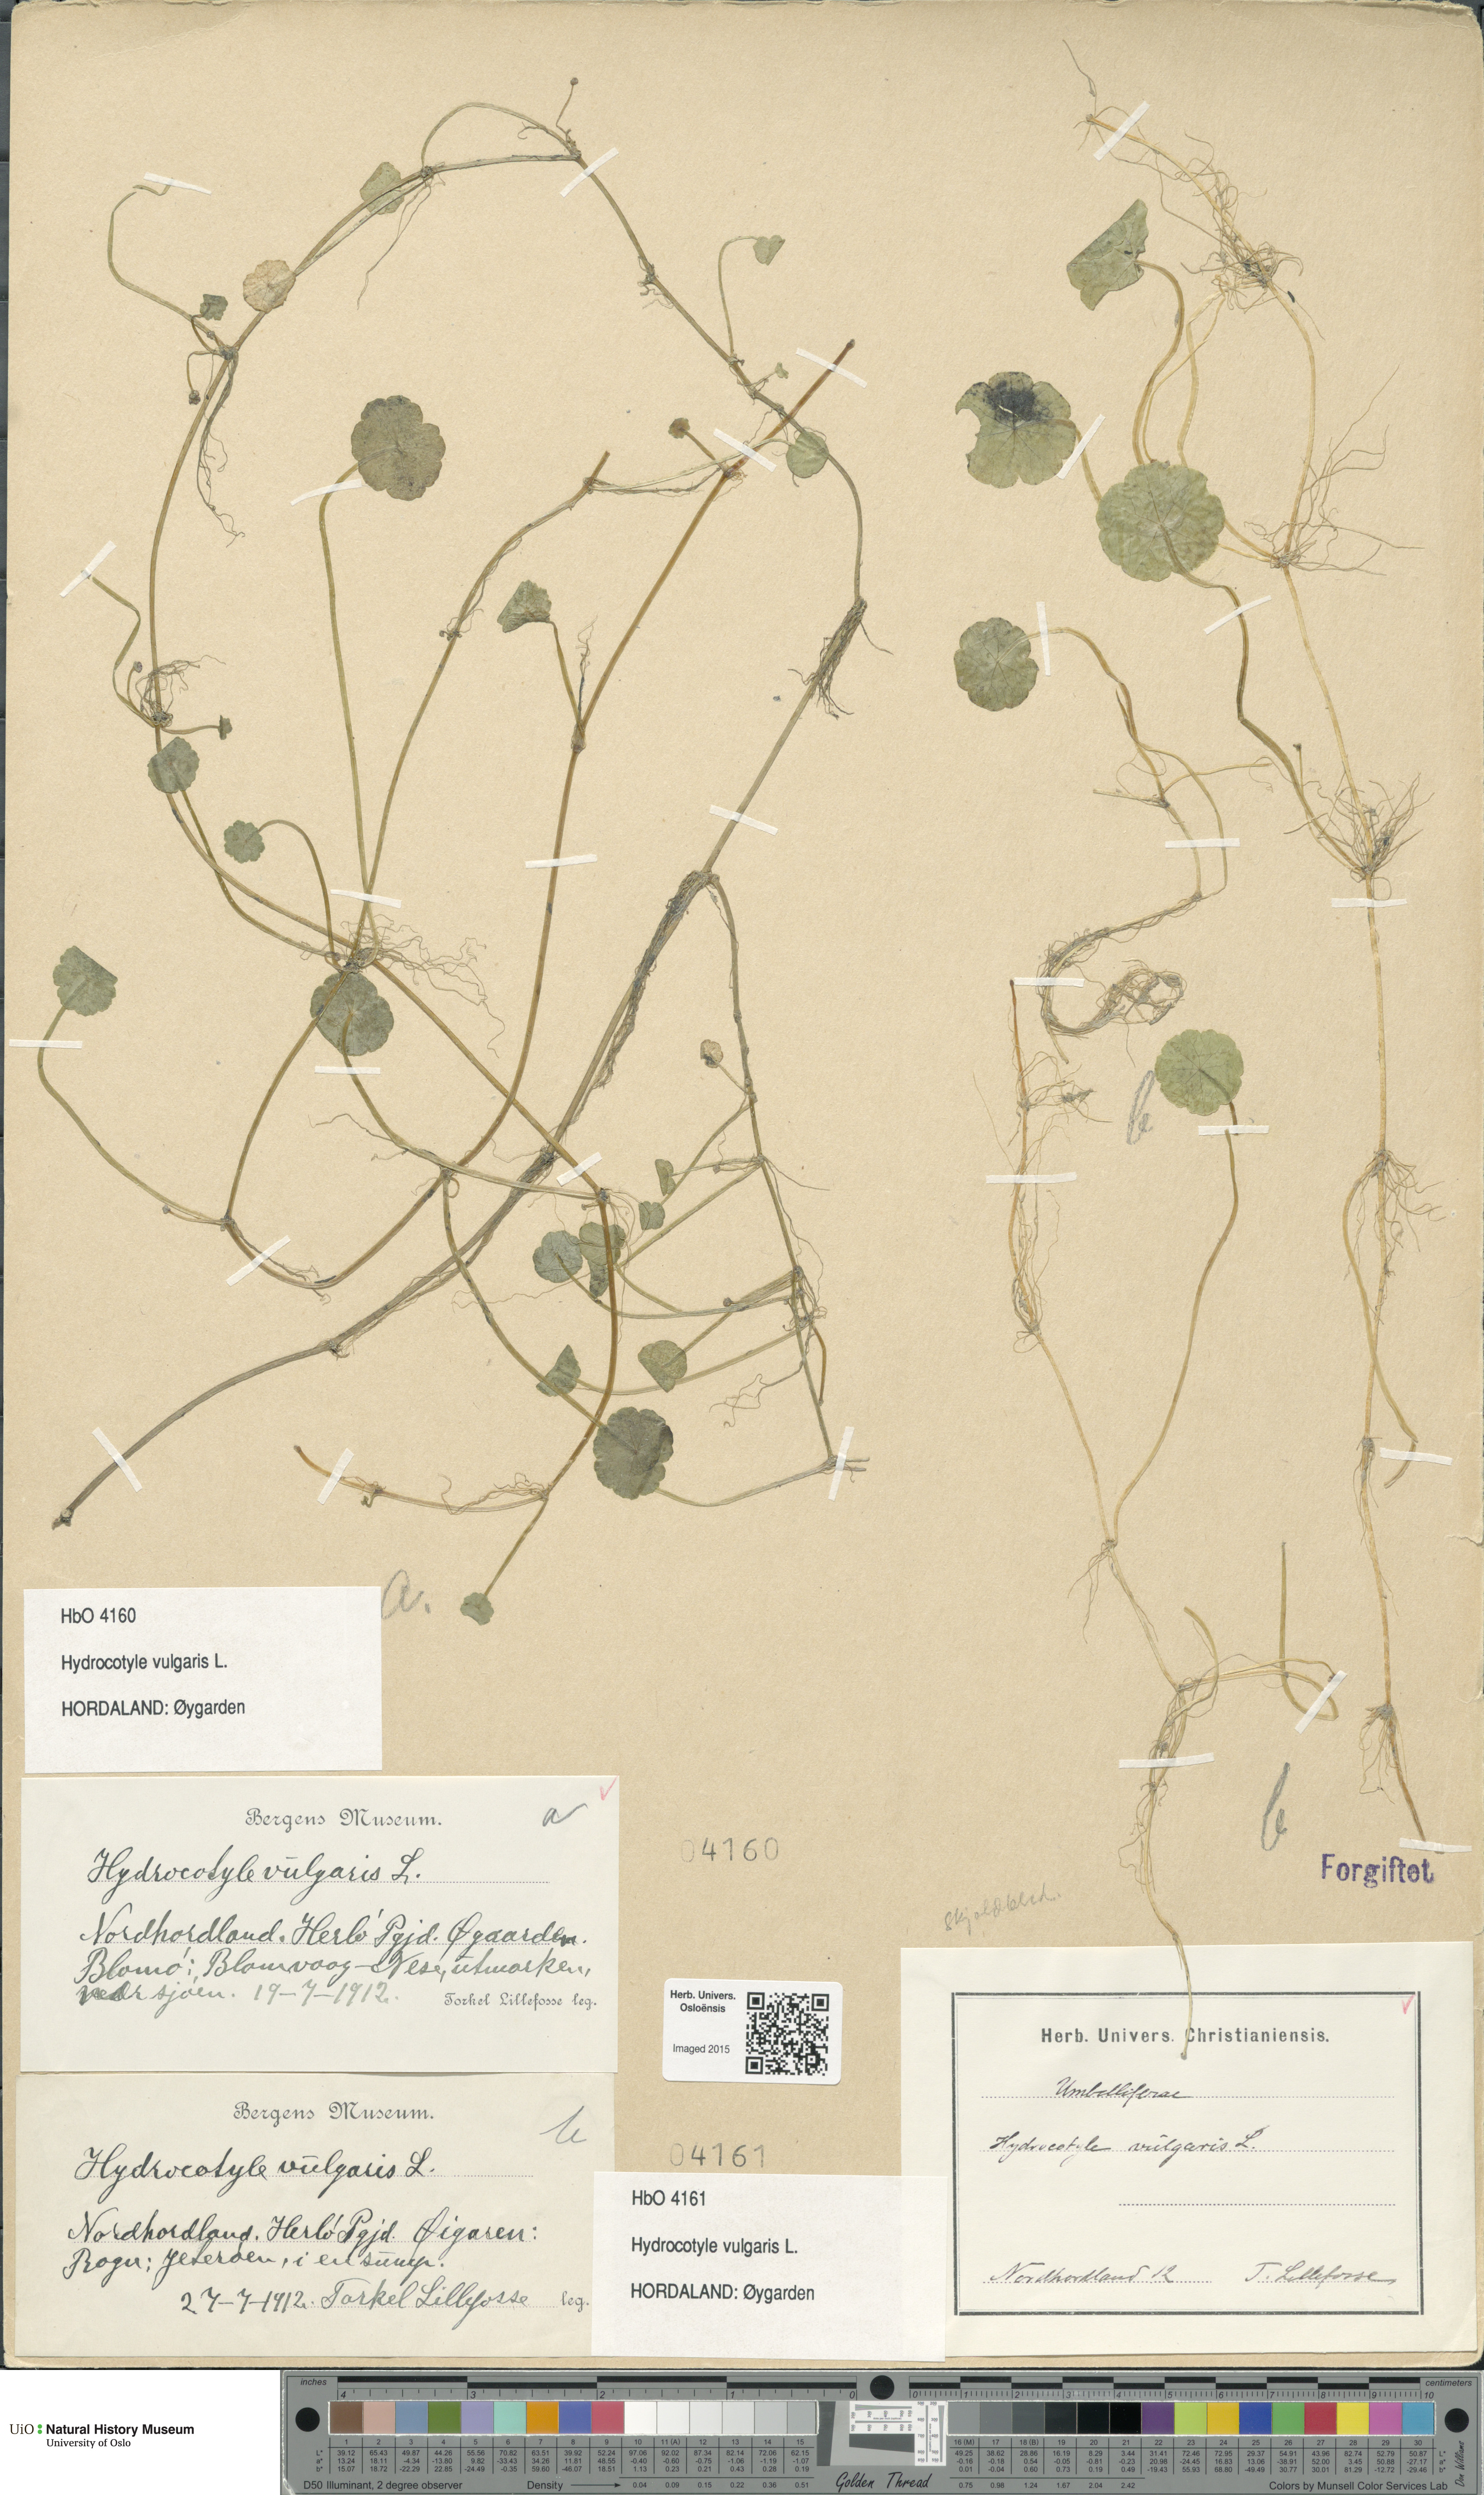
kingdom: Plantae
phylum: Tracheophyta
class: Magnoliopsida
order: Apiales
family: Araliaceae
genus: Hydrocotyle
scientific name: Hydrocotyle vulgaris
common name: Marsh pennywort
